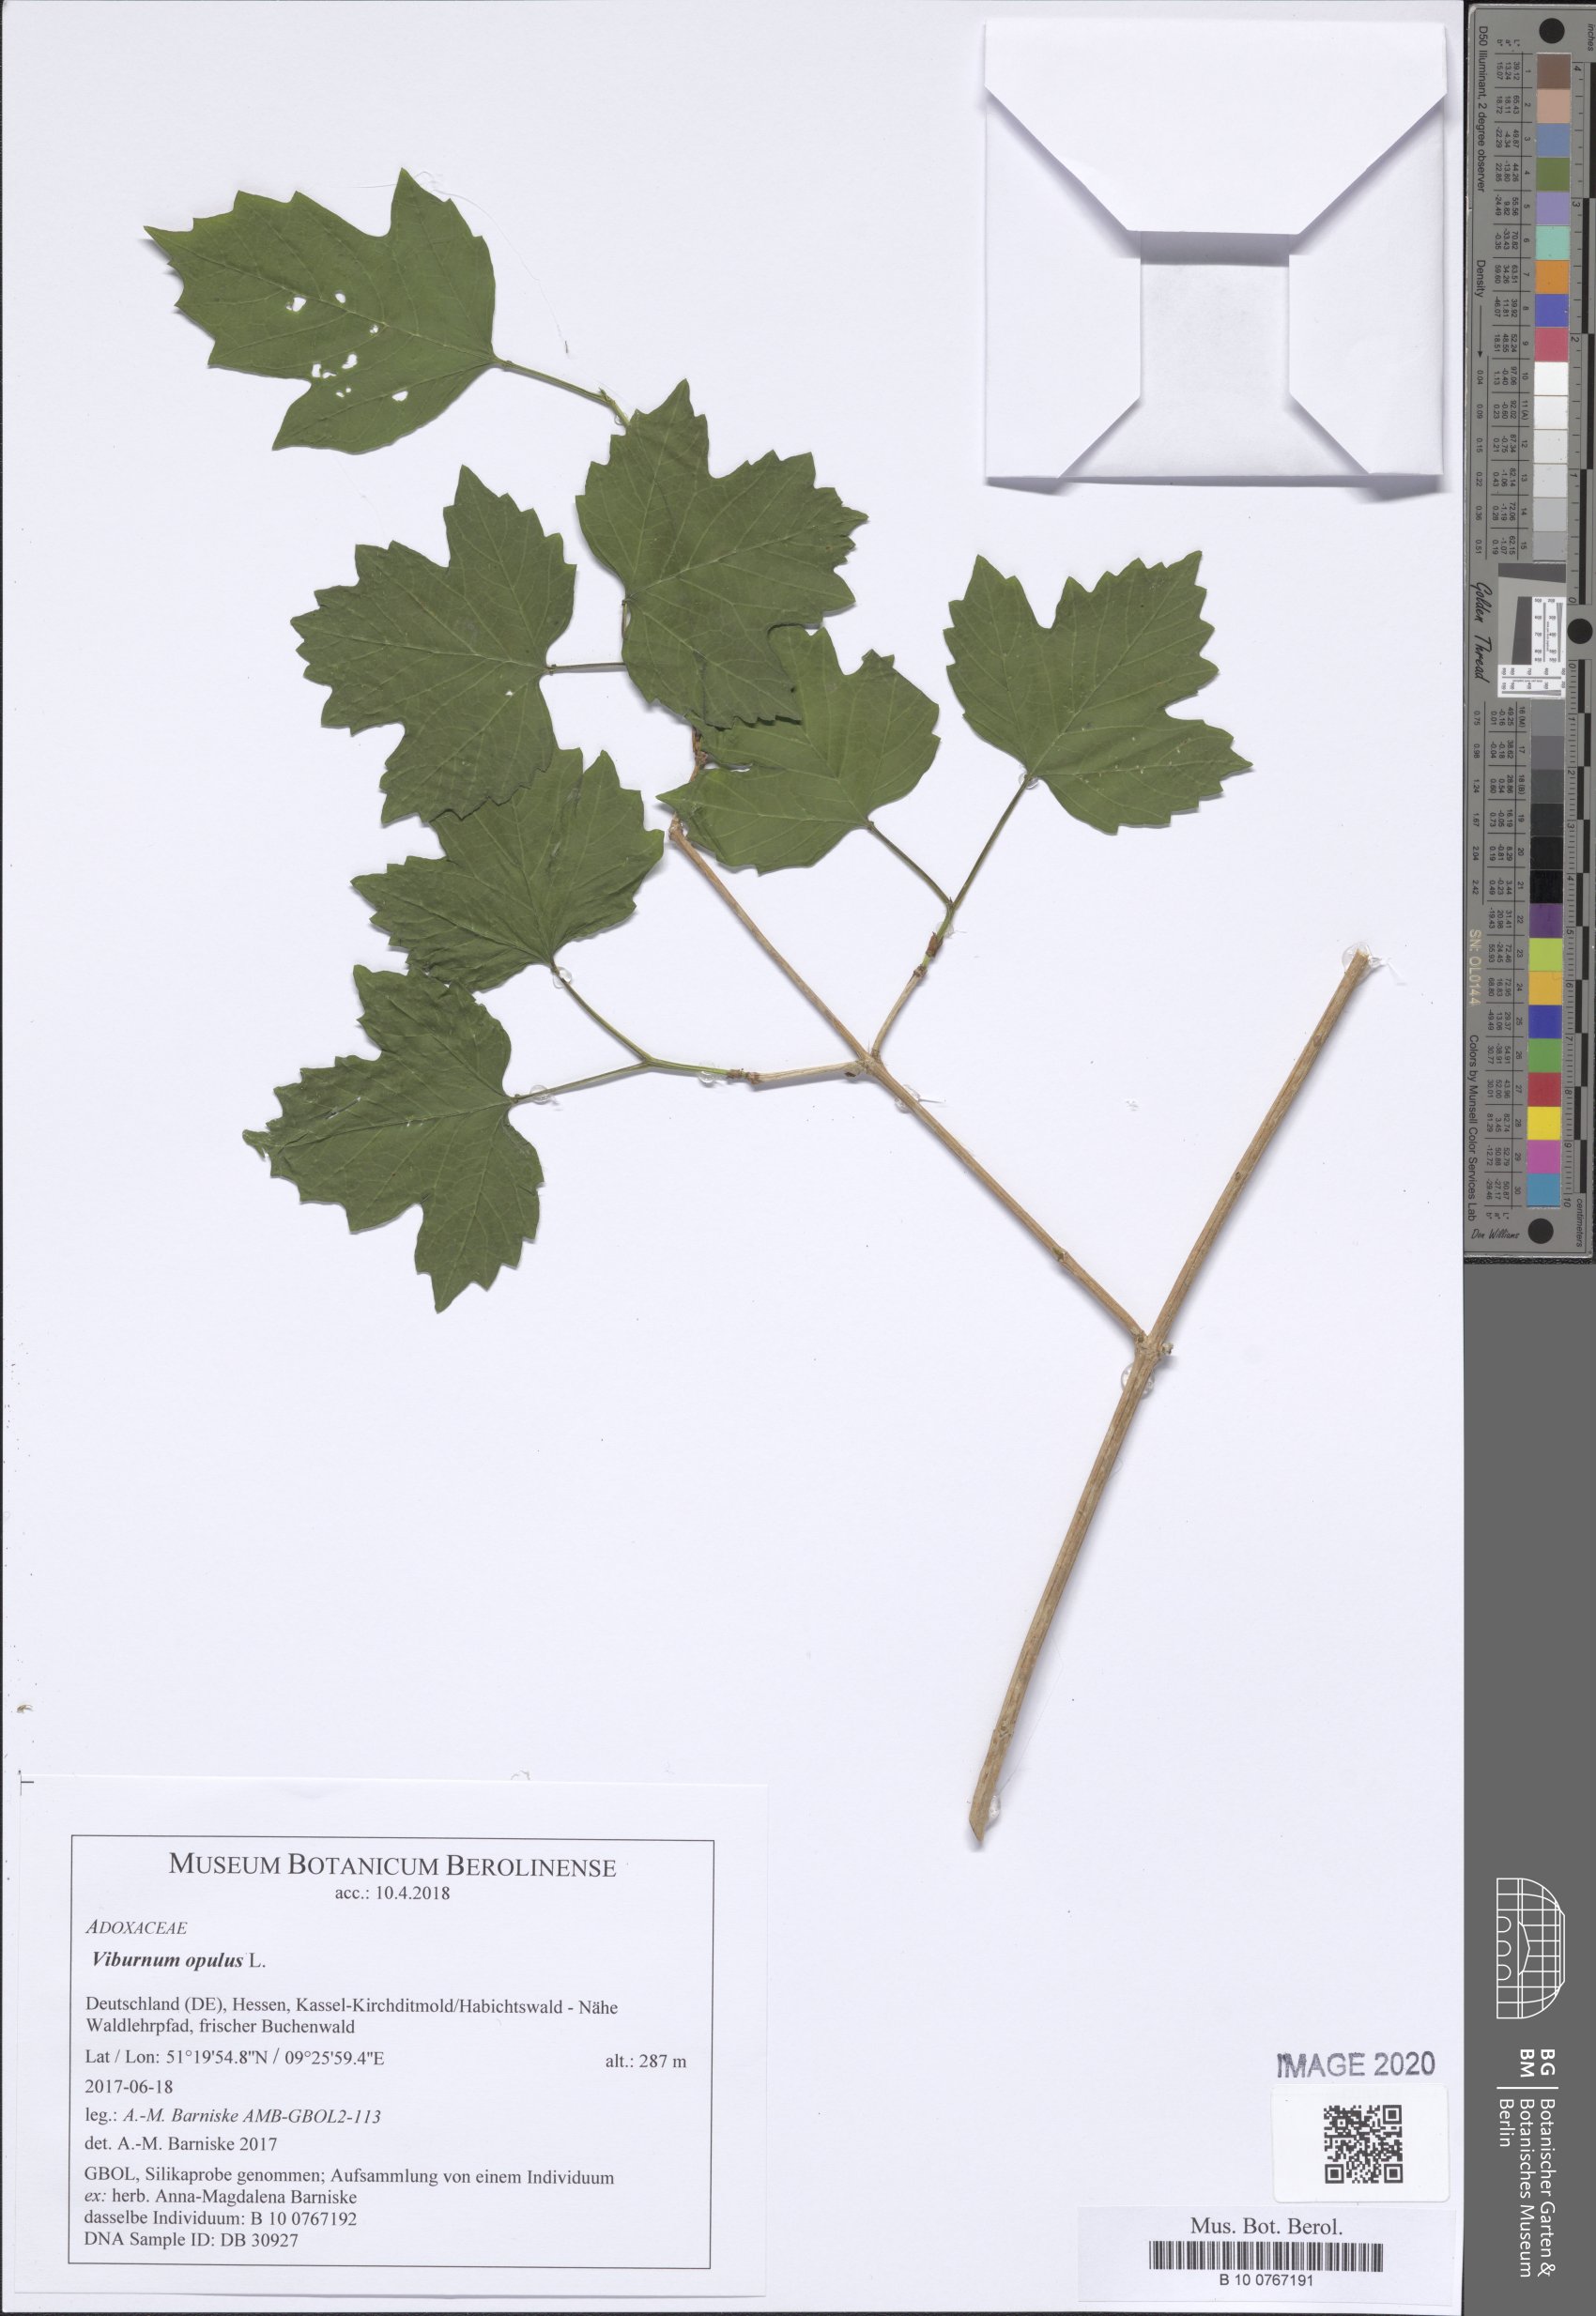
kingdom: Plantae
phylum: Tracheophyta
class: Magnoliopsida
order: Dipsacales
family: Viburnaceae
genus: Viburnum
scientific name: Viburnum opulus
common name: Guelder-rose
